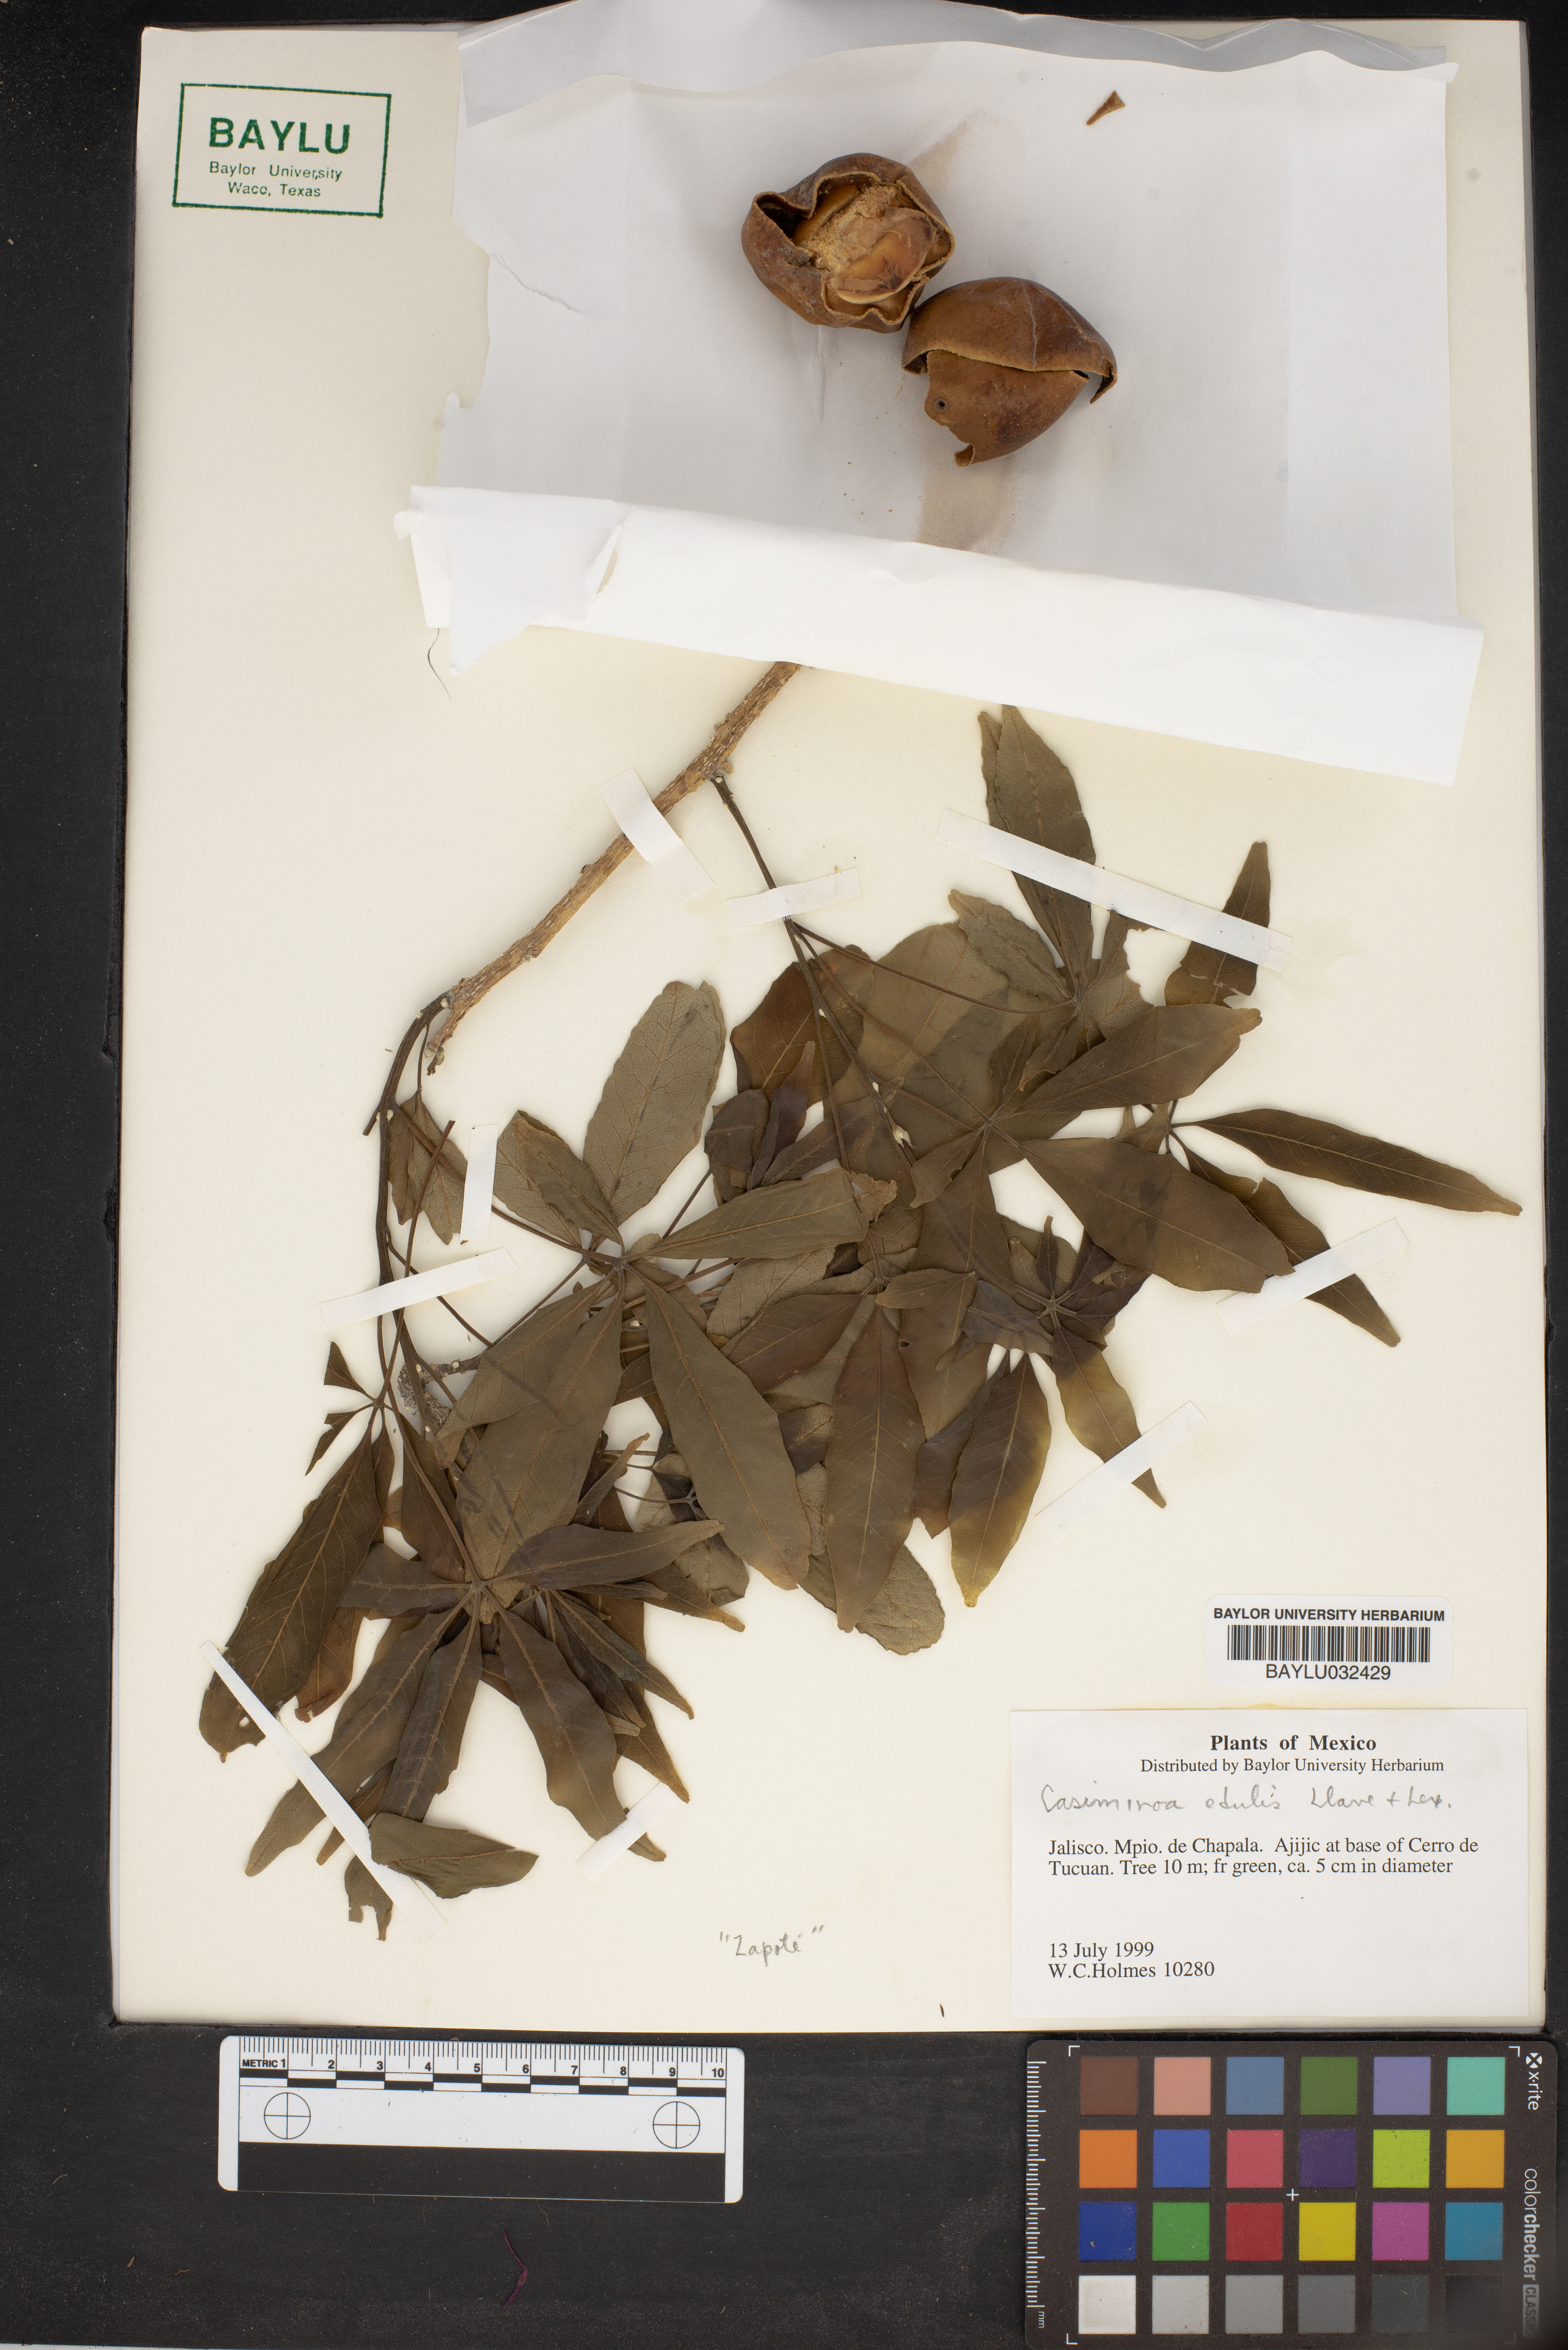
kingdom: Plantae
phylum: Tracheophyta
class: Magnoliopsida
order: Sapindales
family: Rutaceae
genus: Casimiroa
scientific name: Casimiroa
